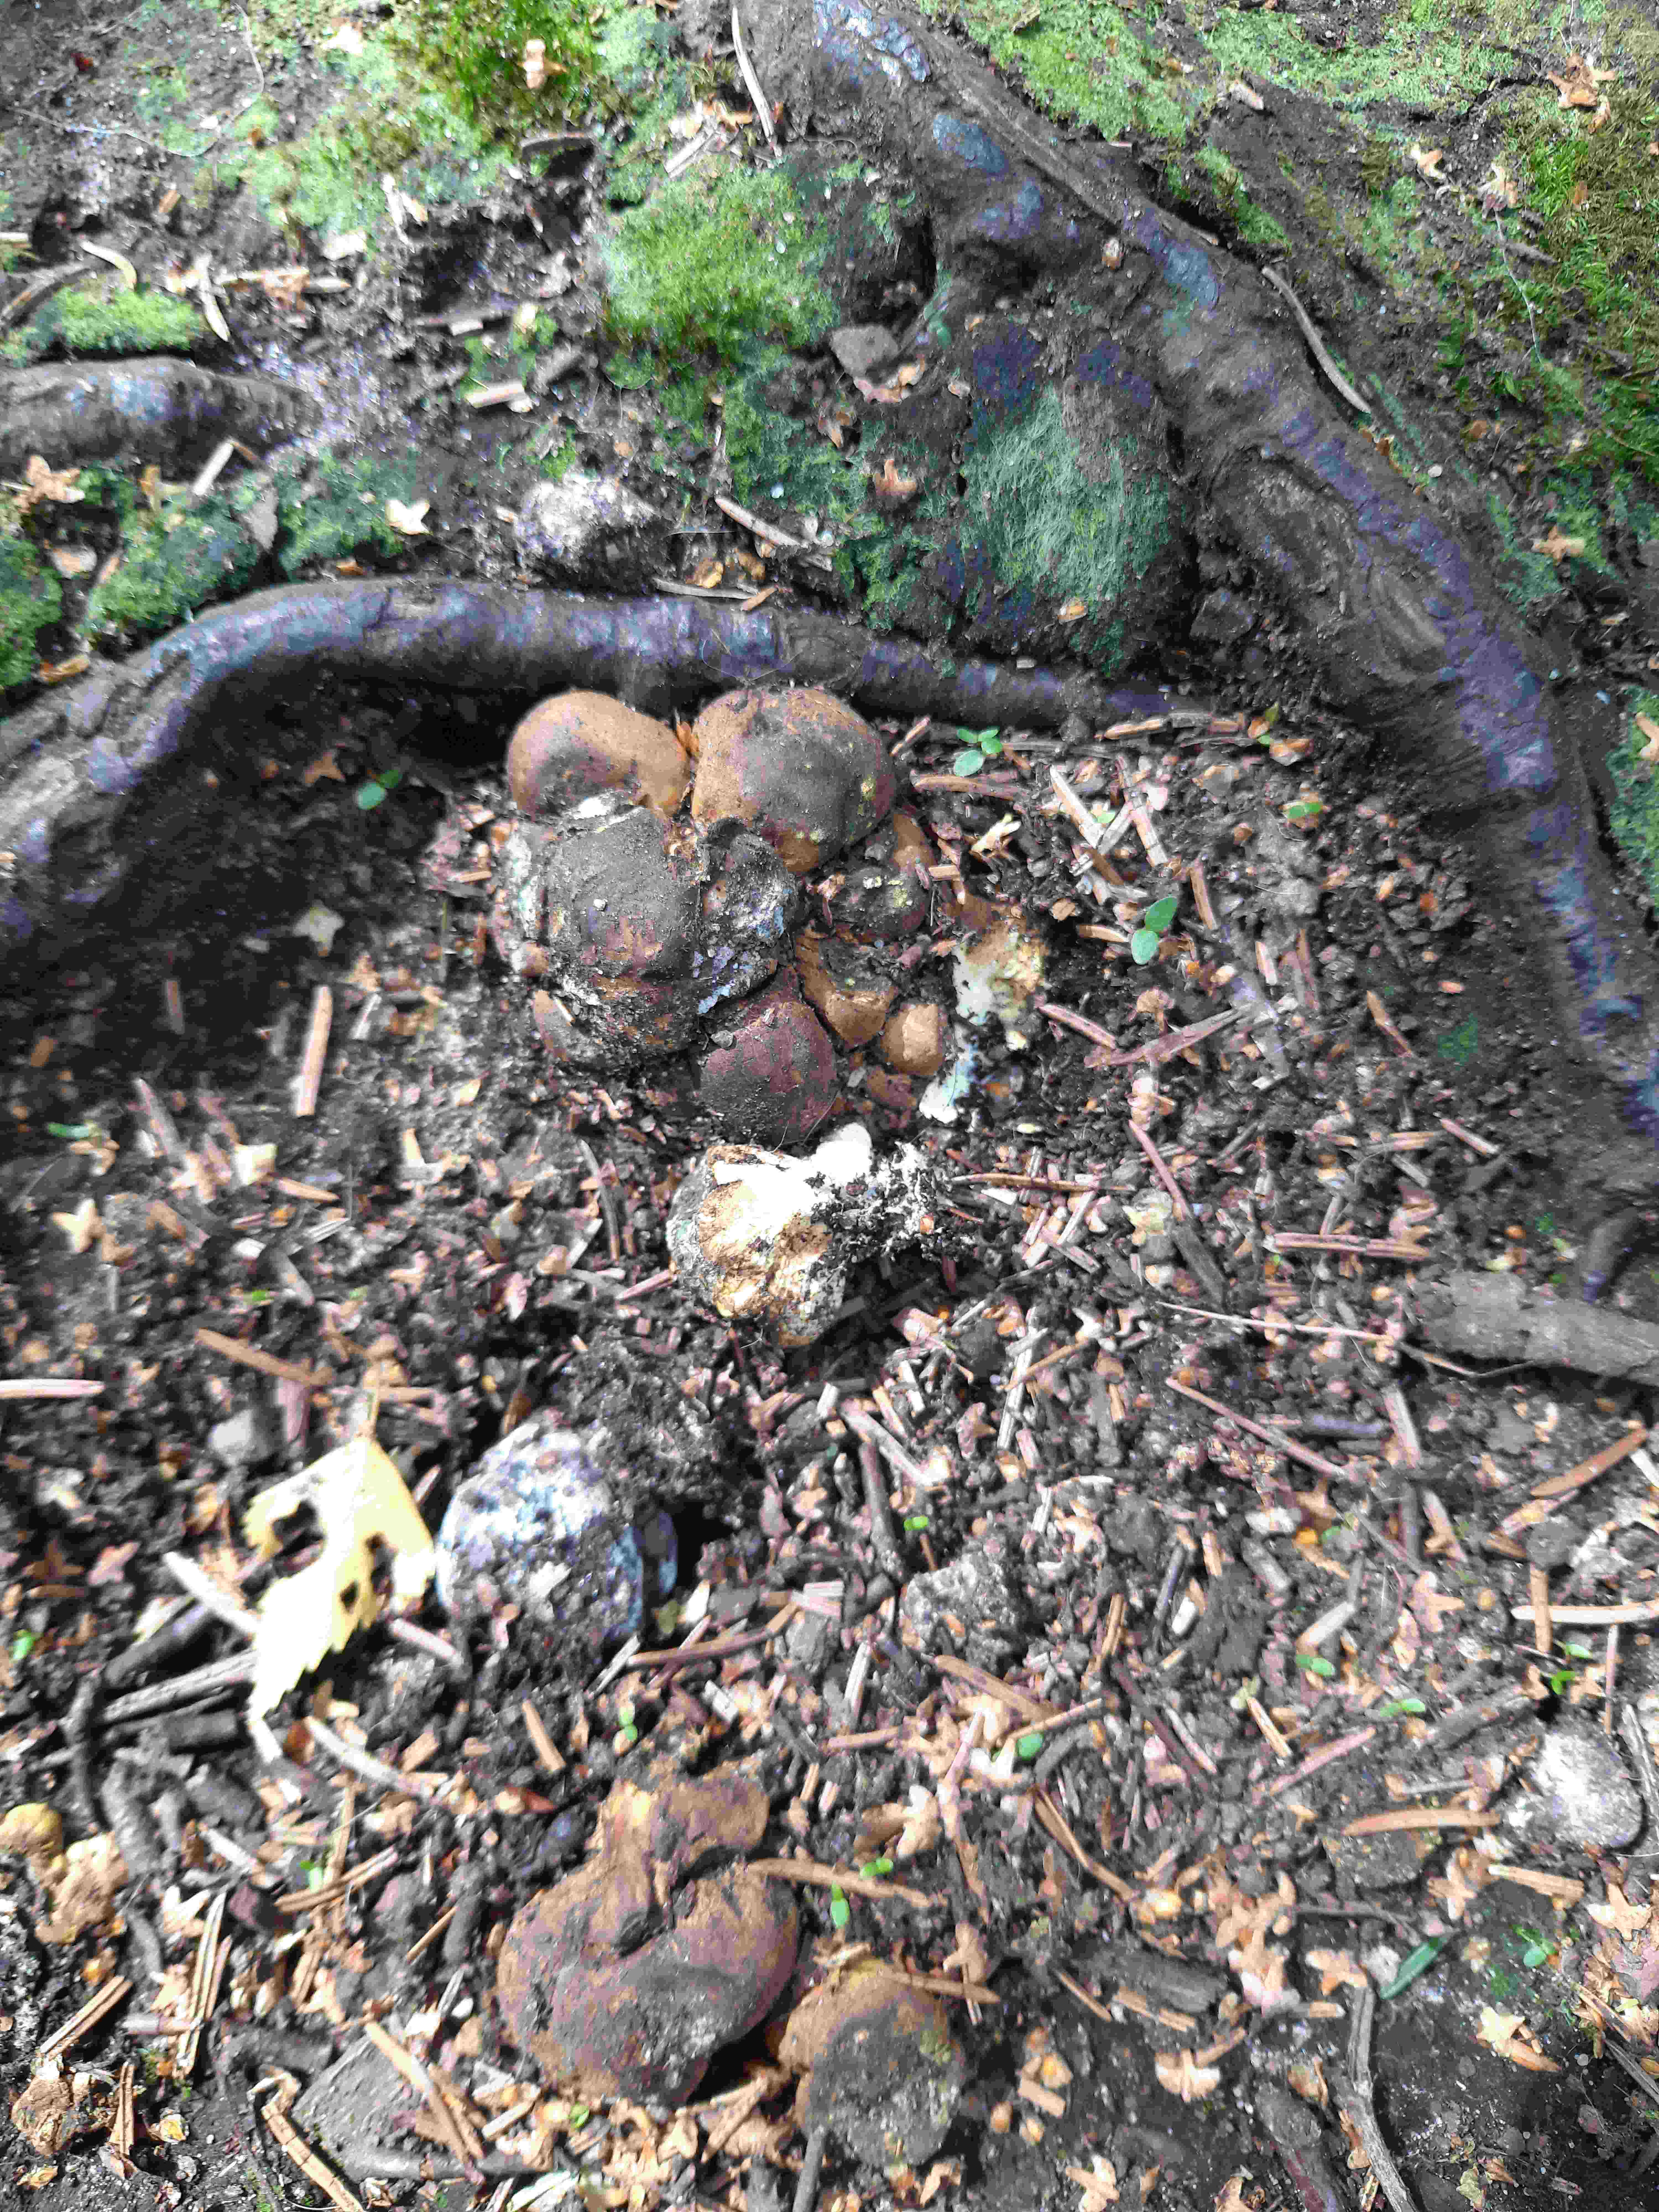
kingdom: Fungi
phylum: Basidiomycota
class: Agaricomycetes
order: Boletales
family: Sclerodermataceae
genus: Scleroderma
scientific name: Scleroderma
